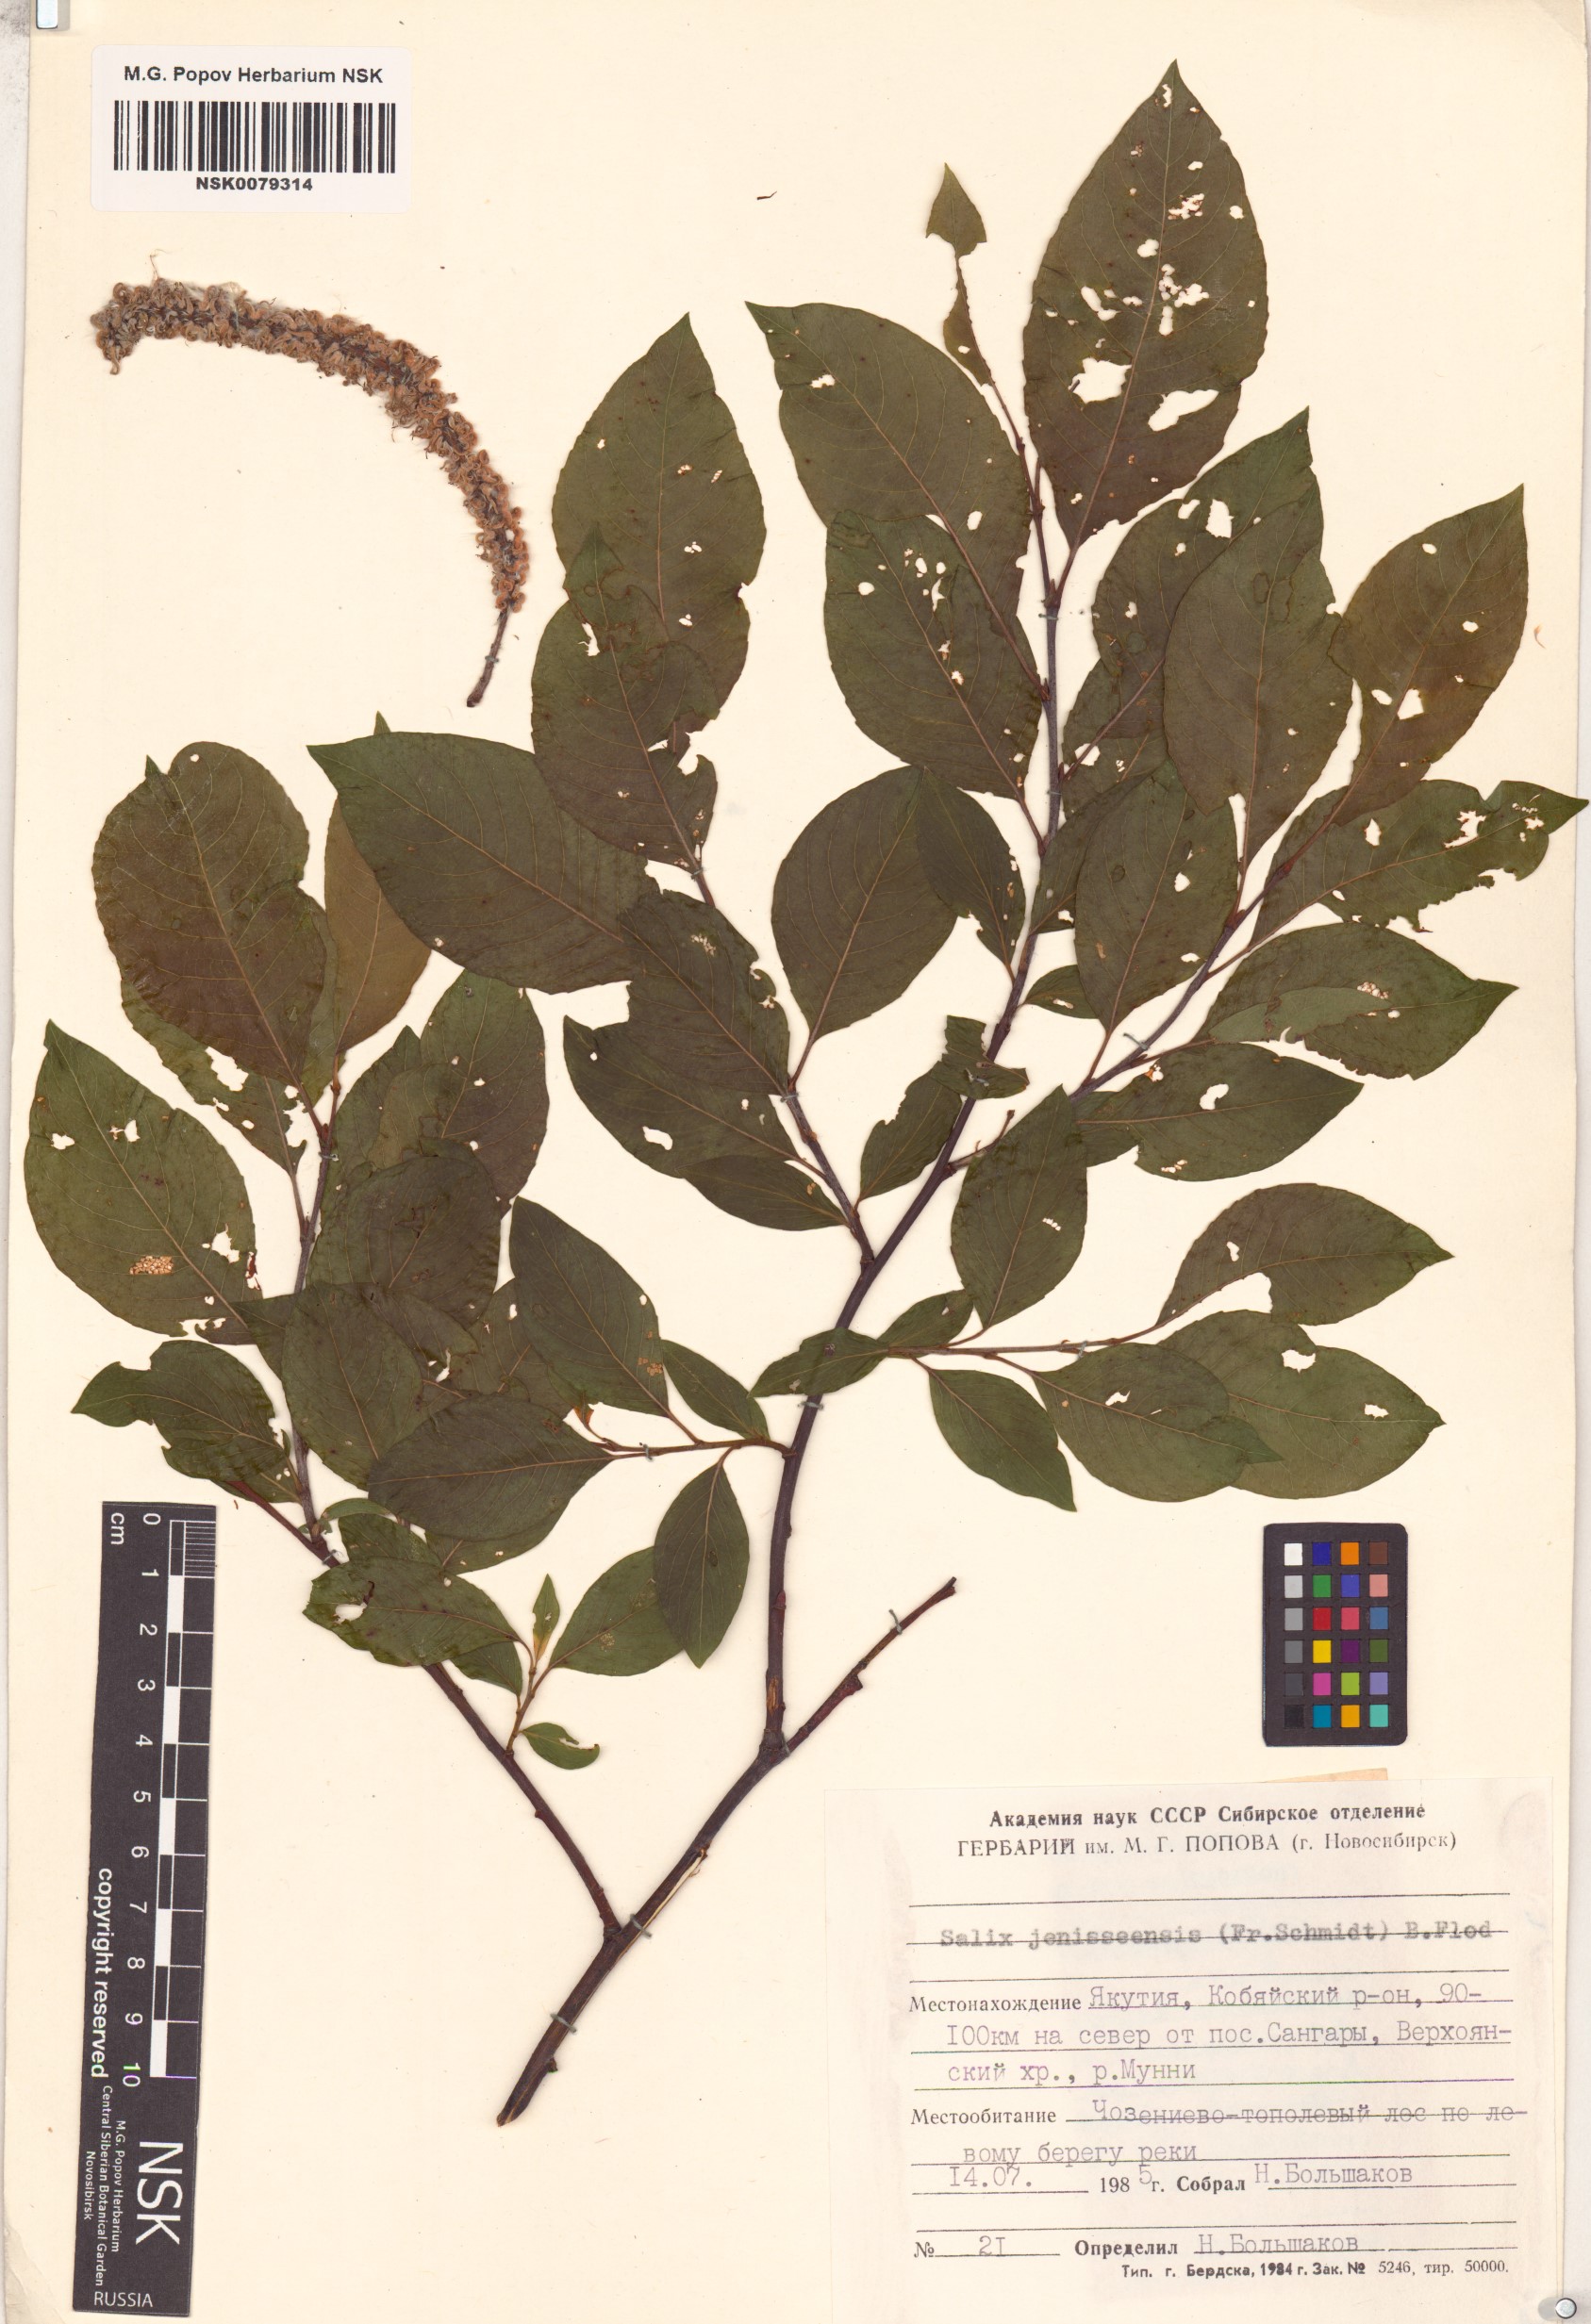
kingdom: Plantae
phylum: Tracheophyta
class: Magnoliopsida
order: Malpighiales
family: Salicaceae
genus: Salix
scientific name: Salix jenisseensis
